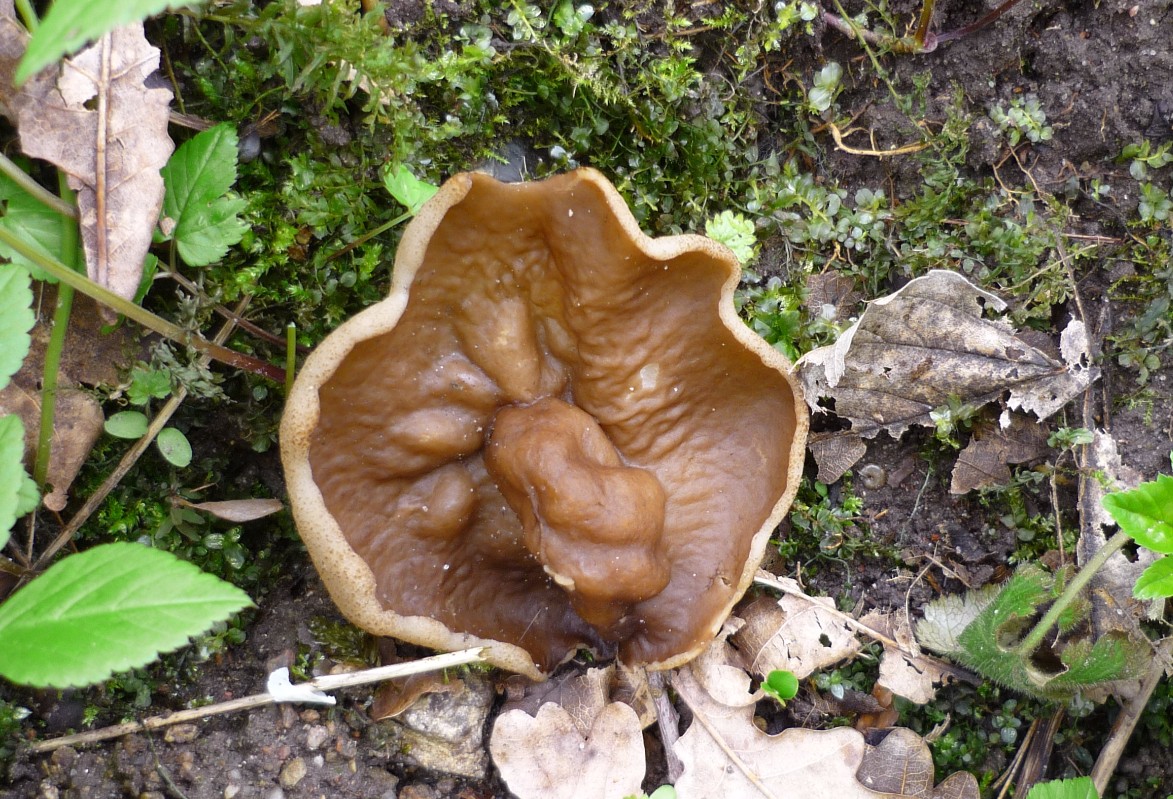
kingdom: Fungi
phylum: Ascomycota
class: Pezizomycetes
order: Pezizales
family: Morchellaceae
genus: Disciotis
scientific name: Disciotis venosa
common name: klor-bægermorkel
